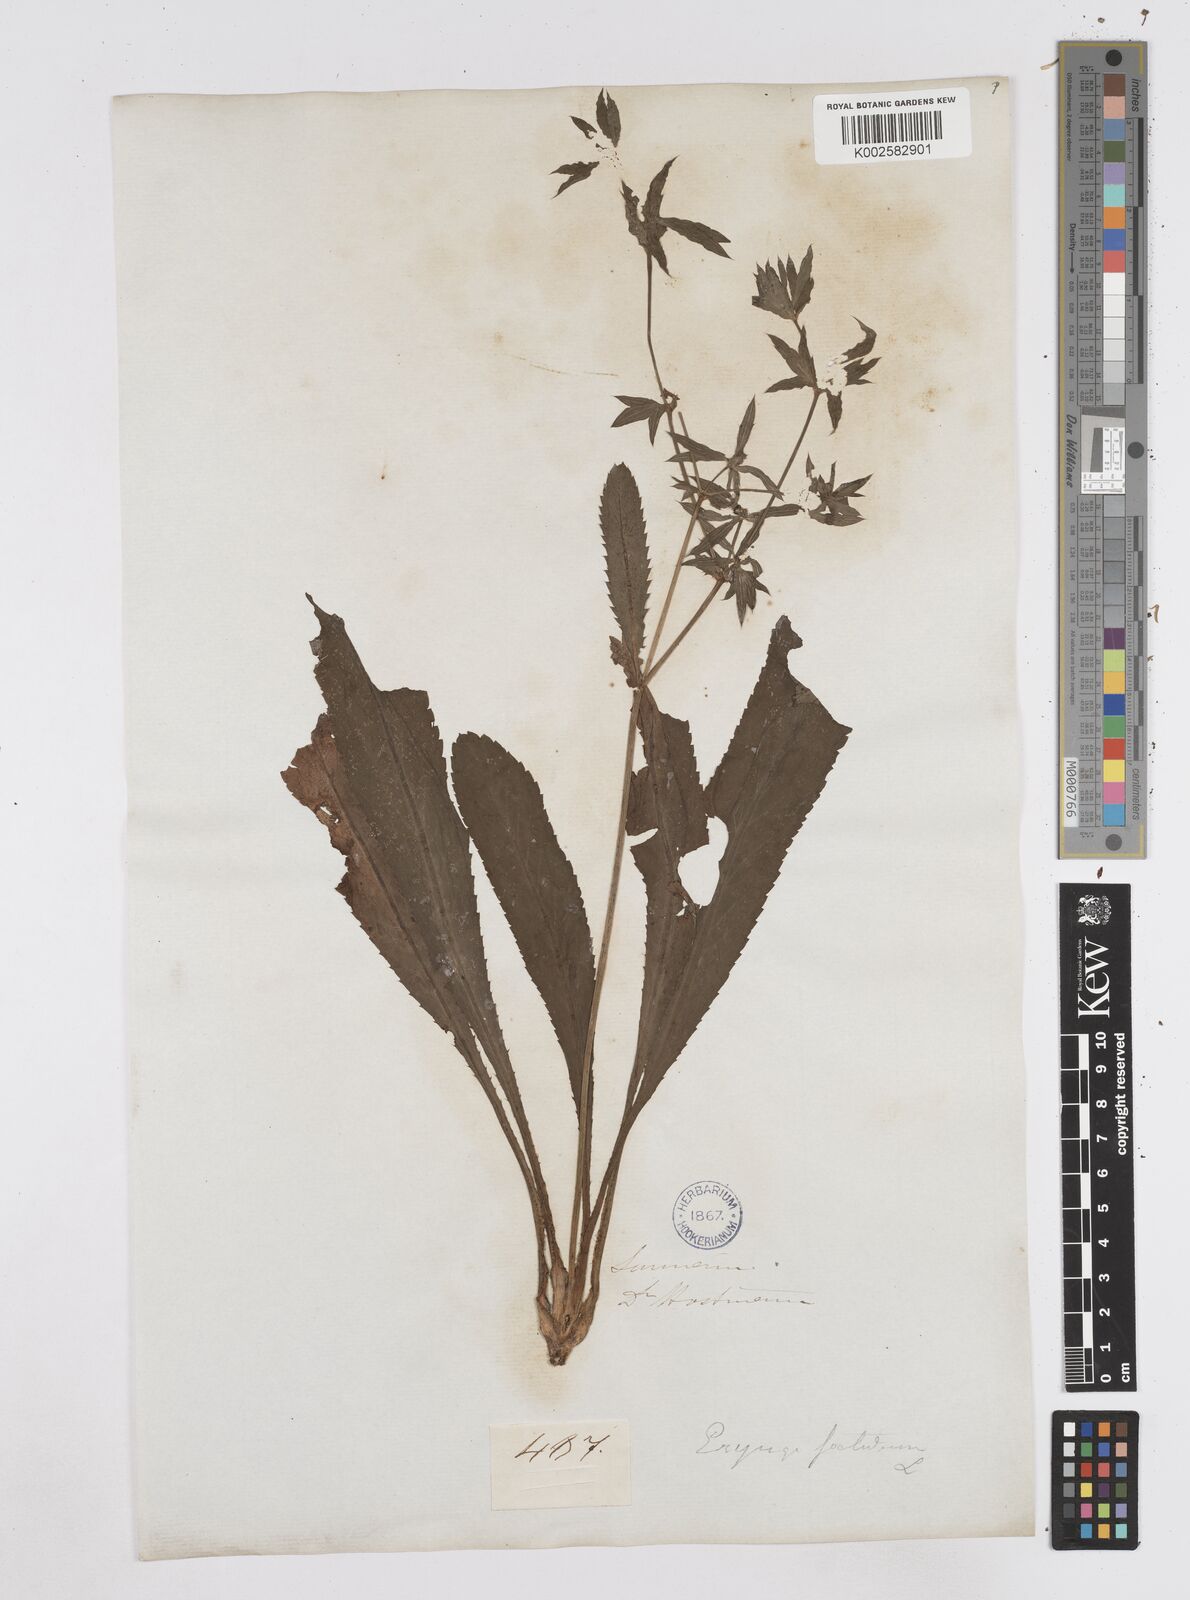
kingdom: Plantae
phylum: Tracheophyta
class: Magnoliopsida
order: Apiales
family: Apiaceae
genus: Eryngium
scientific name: Eryngium foetidum
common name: Fitweed
